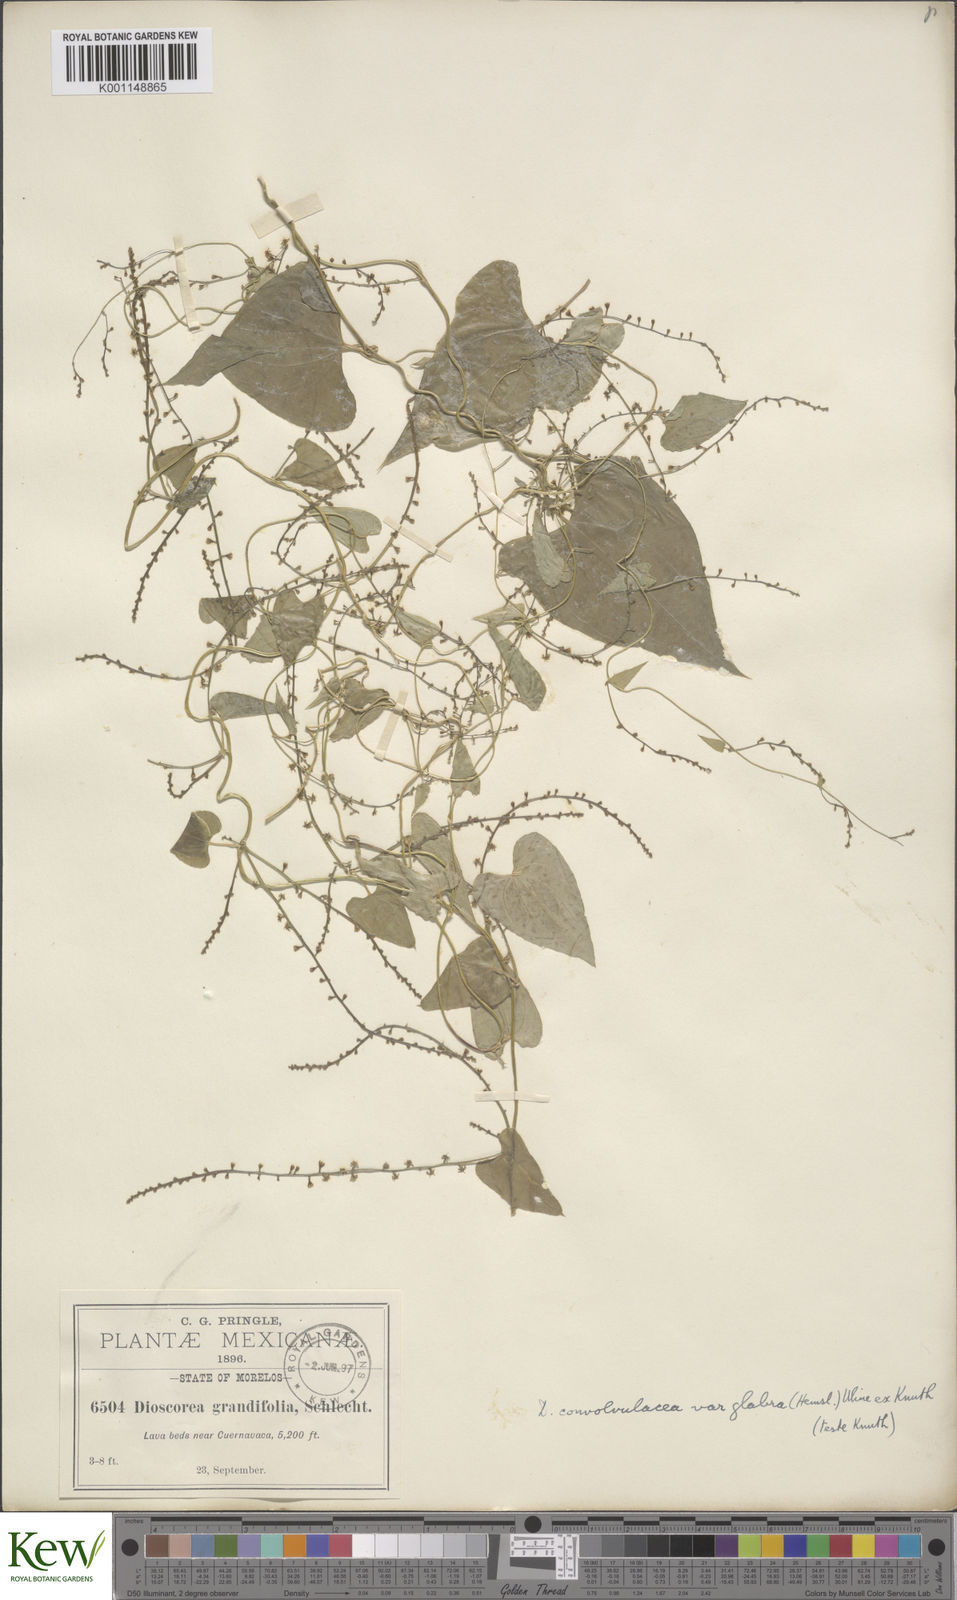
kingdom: Plantae
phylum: Tracheophyta
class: Liliopsida
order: Dioscoreales
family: Dioscoreaceae
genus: Dioscorea
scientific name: Dioscorea convolvulacea
